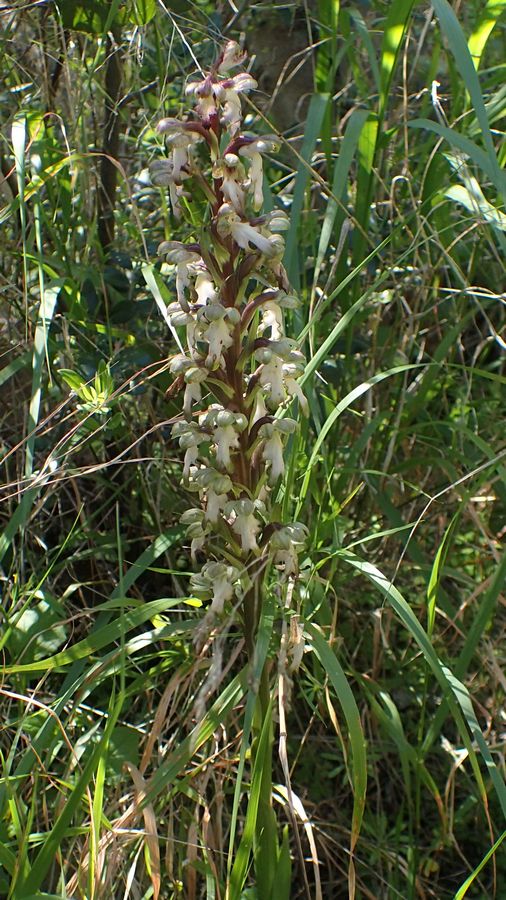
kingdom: Plantae
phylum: Tracheophyta
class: Liliopsida
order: Asparagales
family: Orchidaceae
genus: Himantoglossum
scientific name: Himantoglossum robertianum
